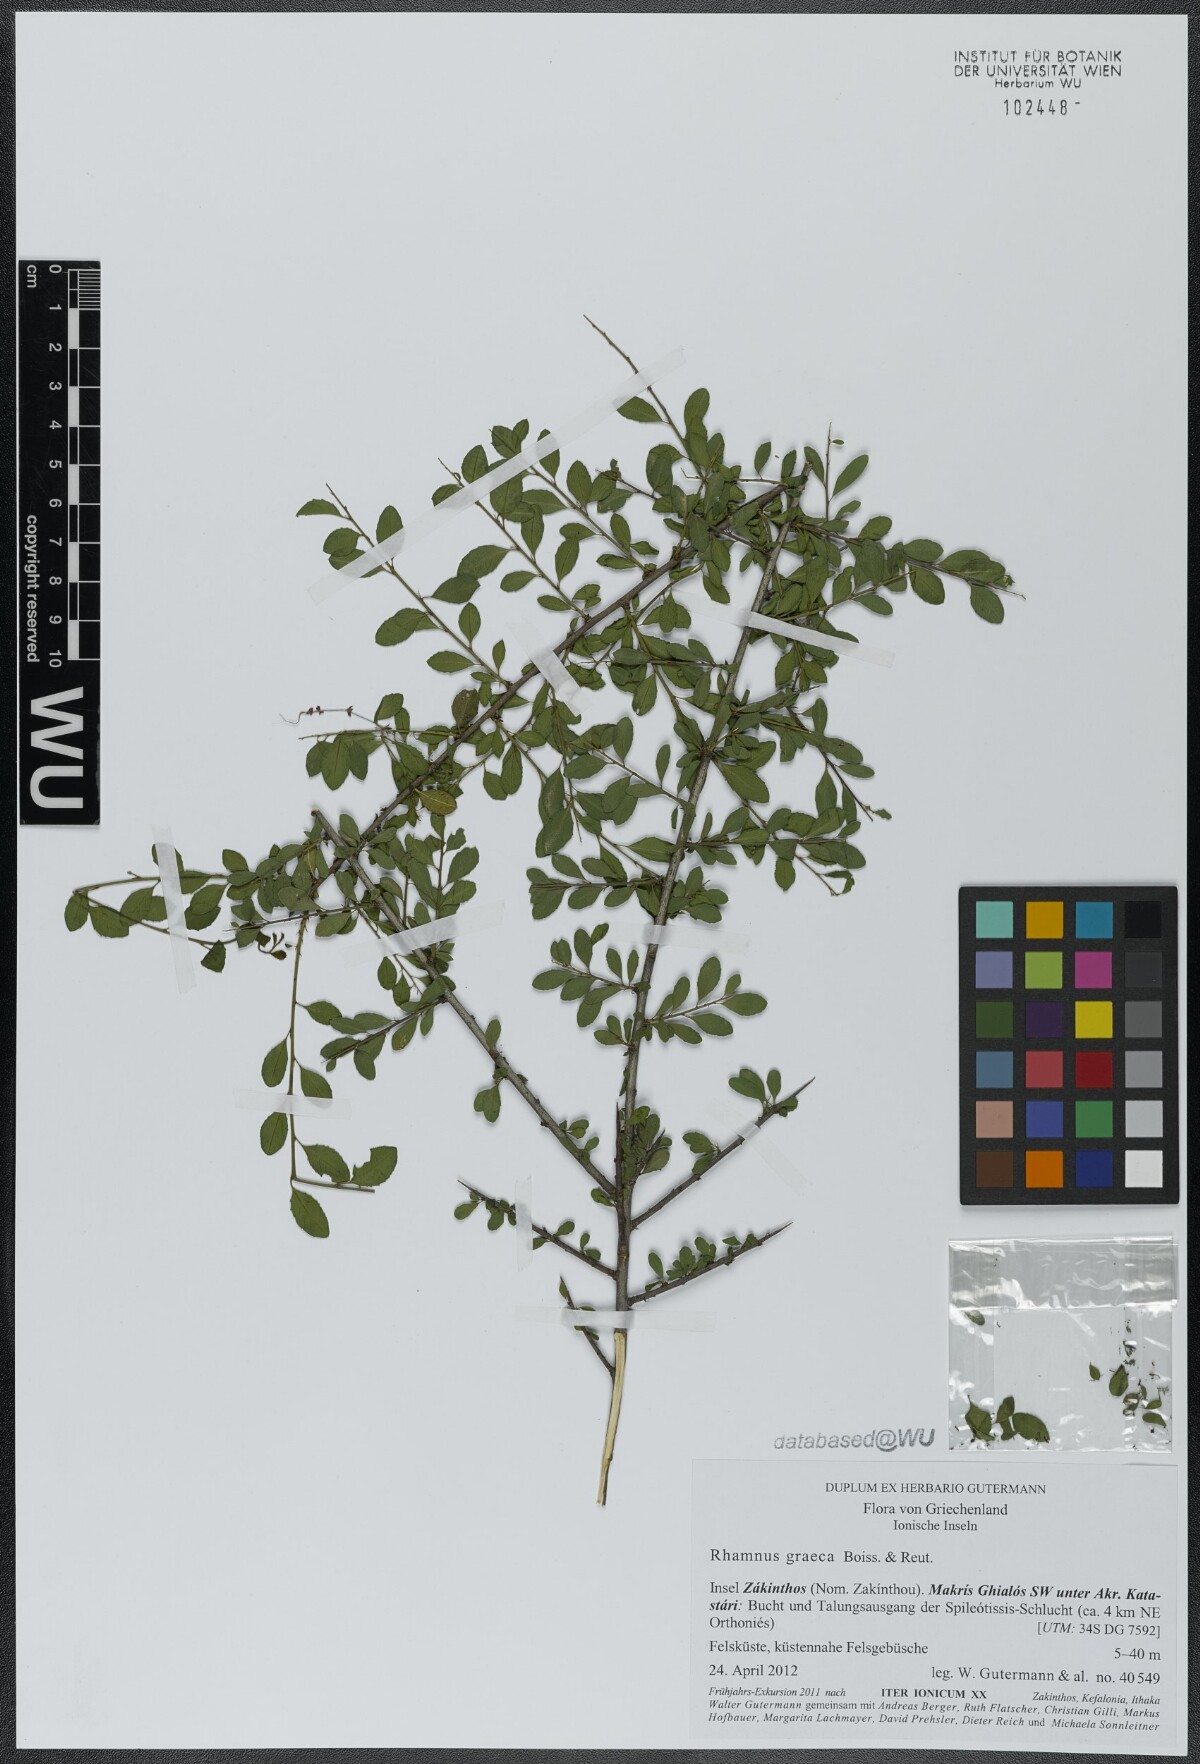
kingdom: Plantae
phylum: Tracheophyta
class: Magnoliopsida
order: Rosales
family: Rhamnaceae
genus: Rhamnus
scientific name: Rhamnus
